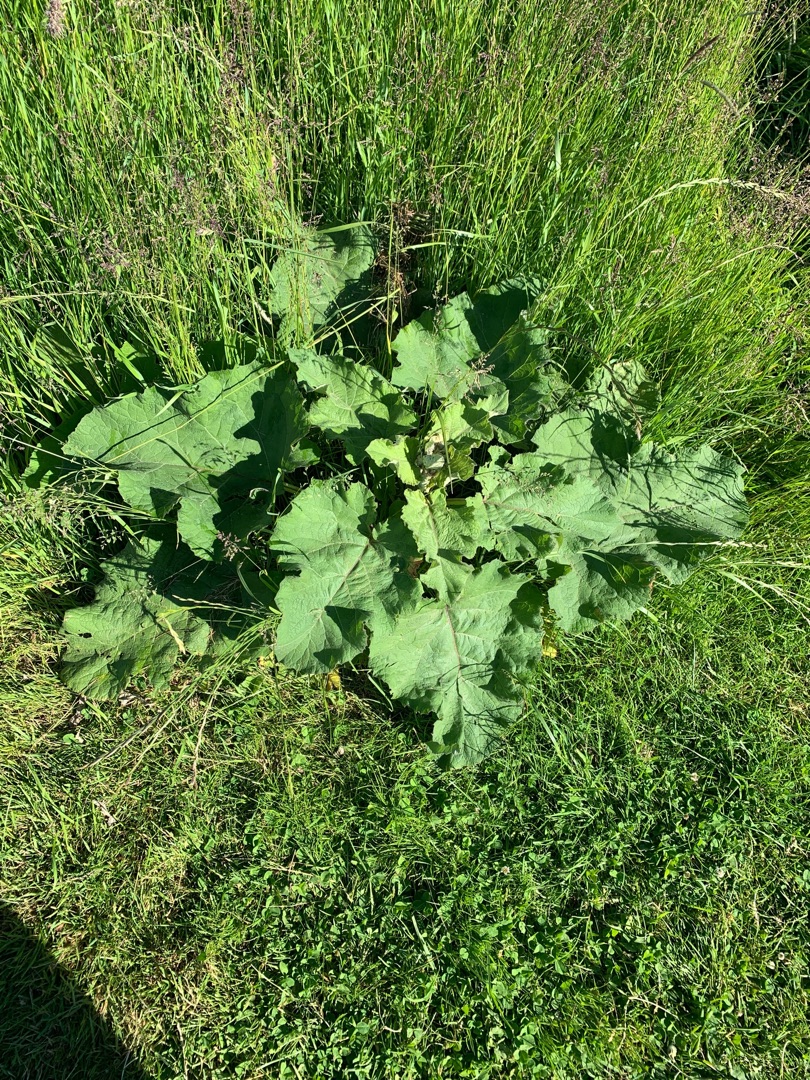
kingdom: Plantae
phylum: Tracheophyta
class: Magnoliopsida
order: Asterales
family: Asteraceae
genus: Arctium
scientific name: Arctium
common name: Burreslægten
